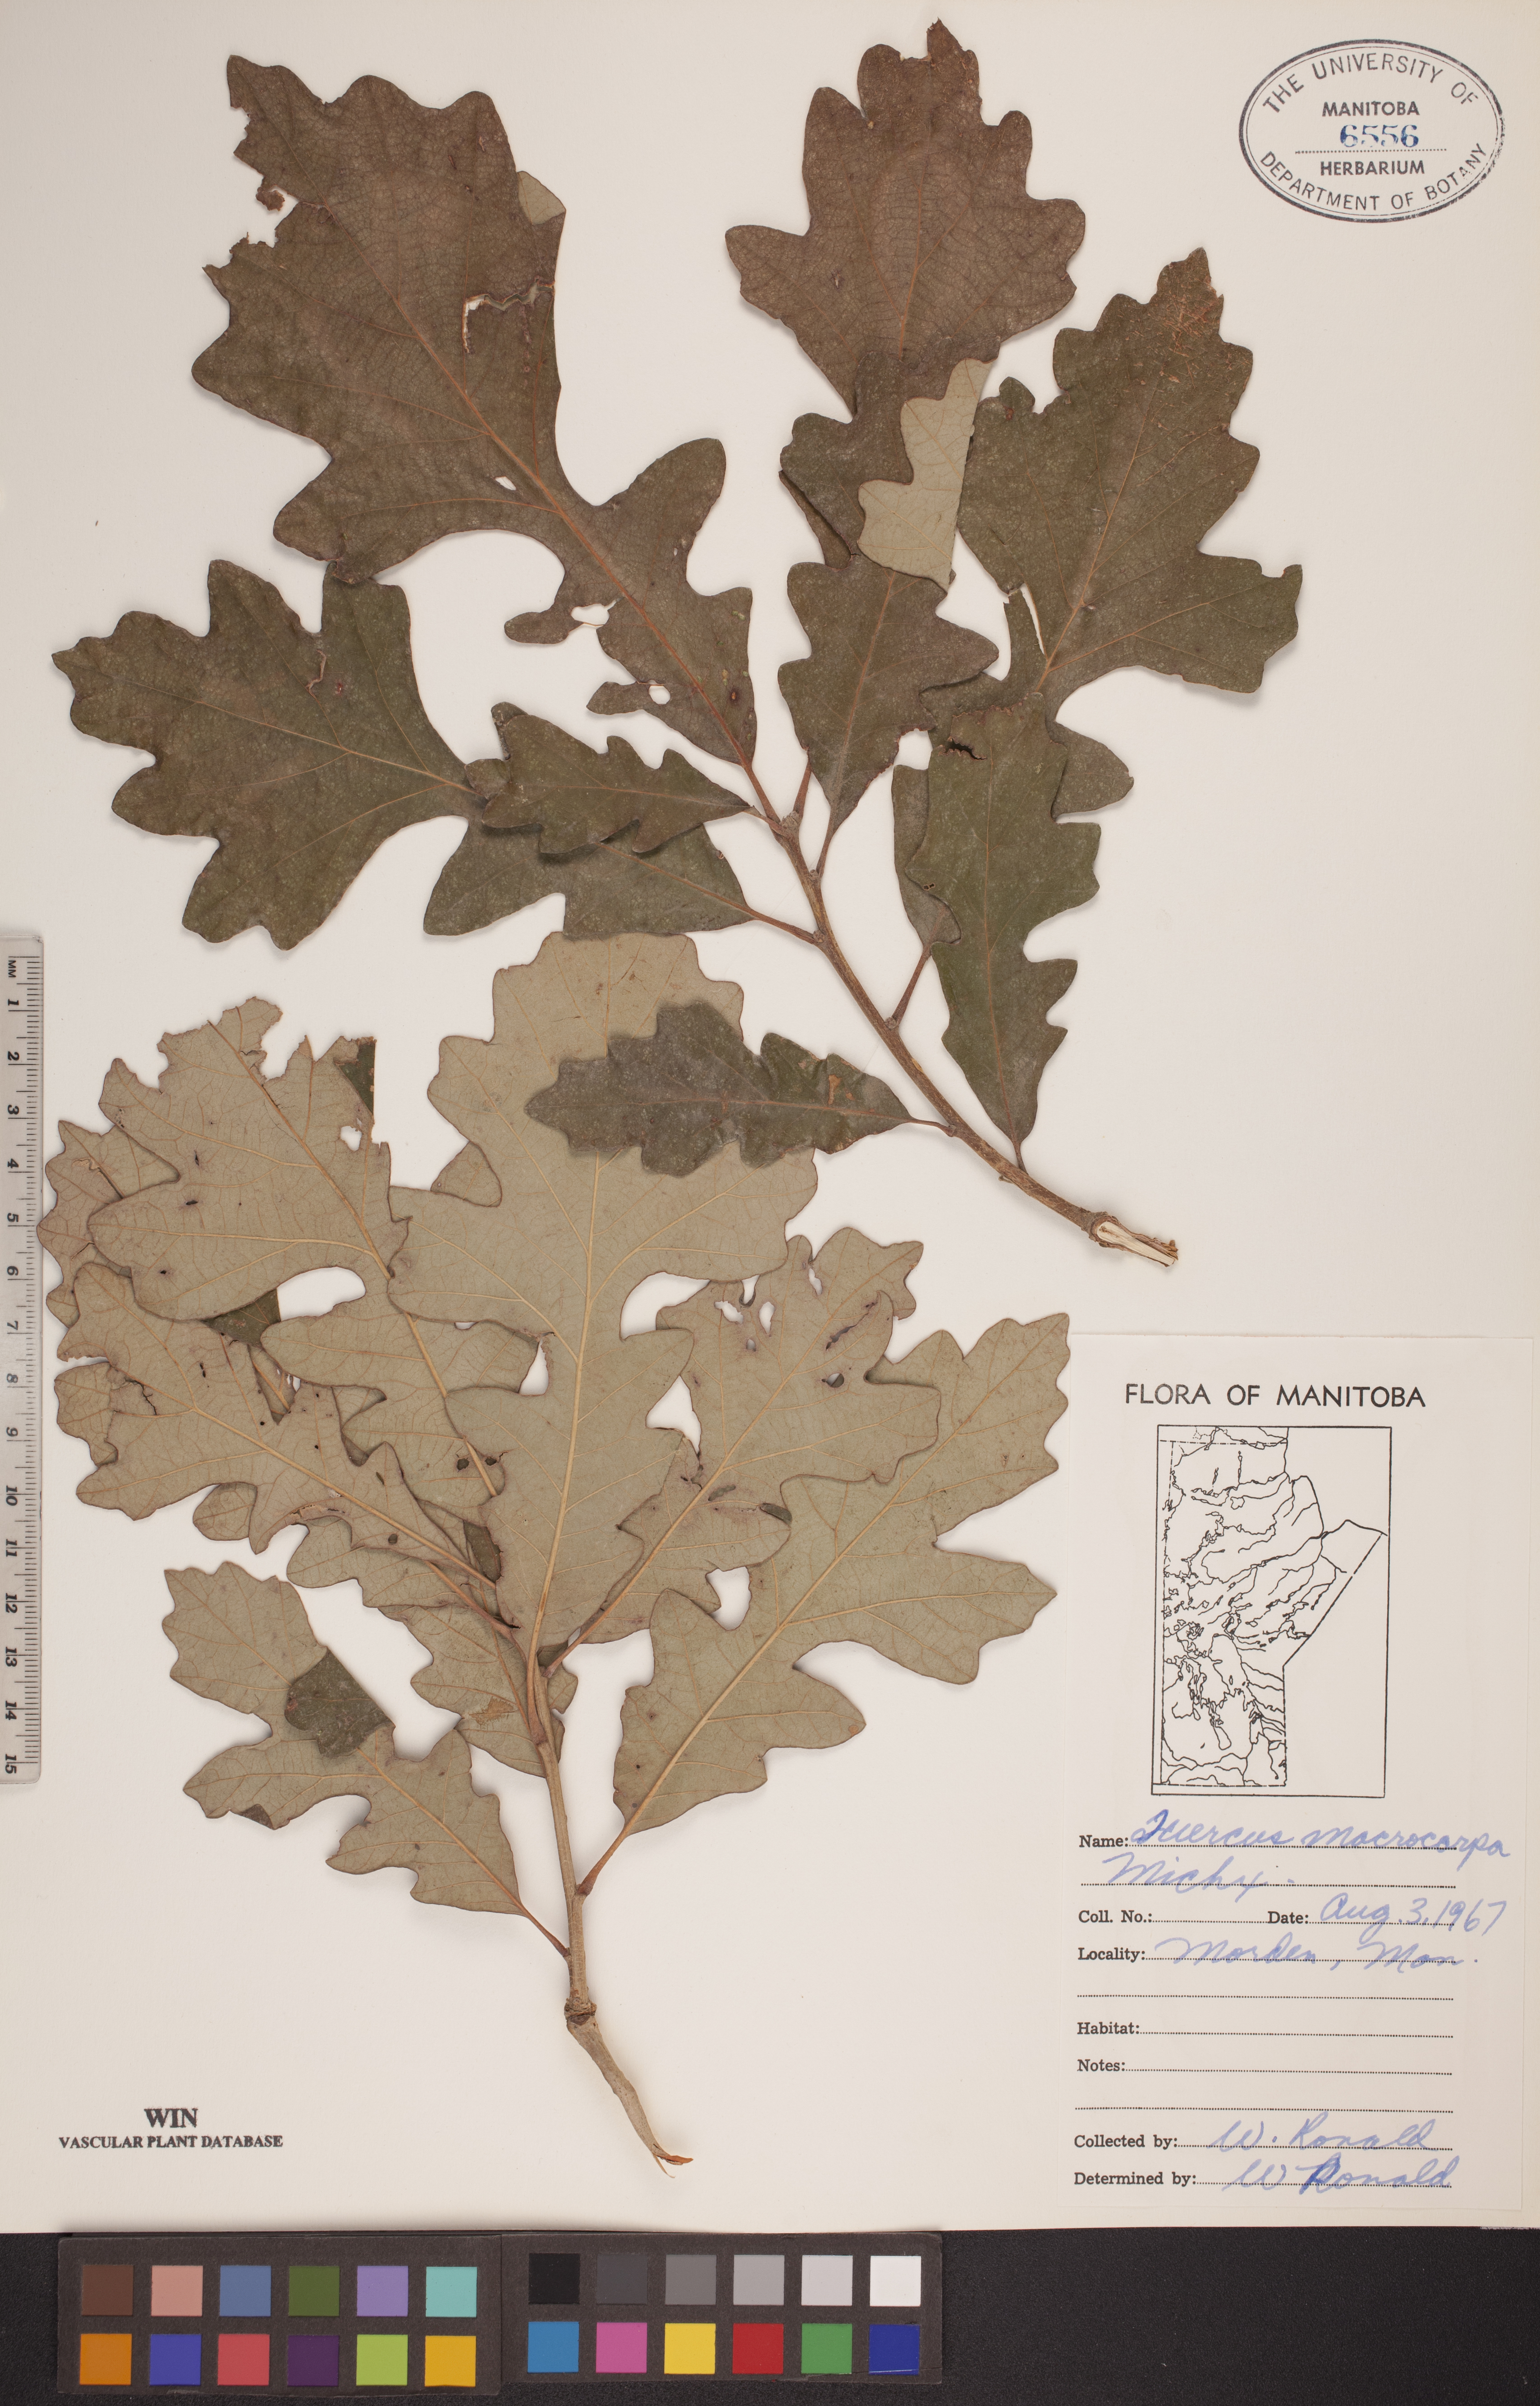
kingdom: Plantae
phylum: Tracheophyta
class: Magnoliopsida
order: Fagales
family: Fagaceae
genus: Quercus
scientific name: Quercus macrocarpa
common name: Bur oak
